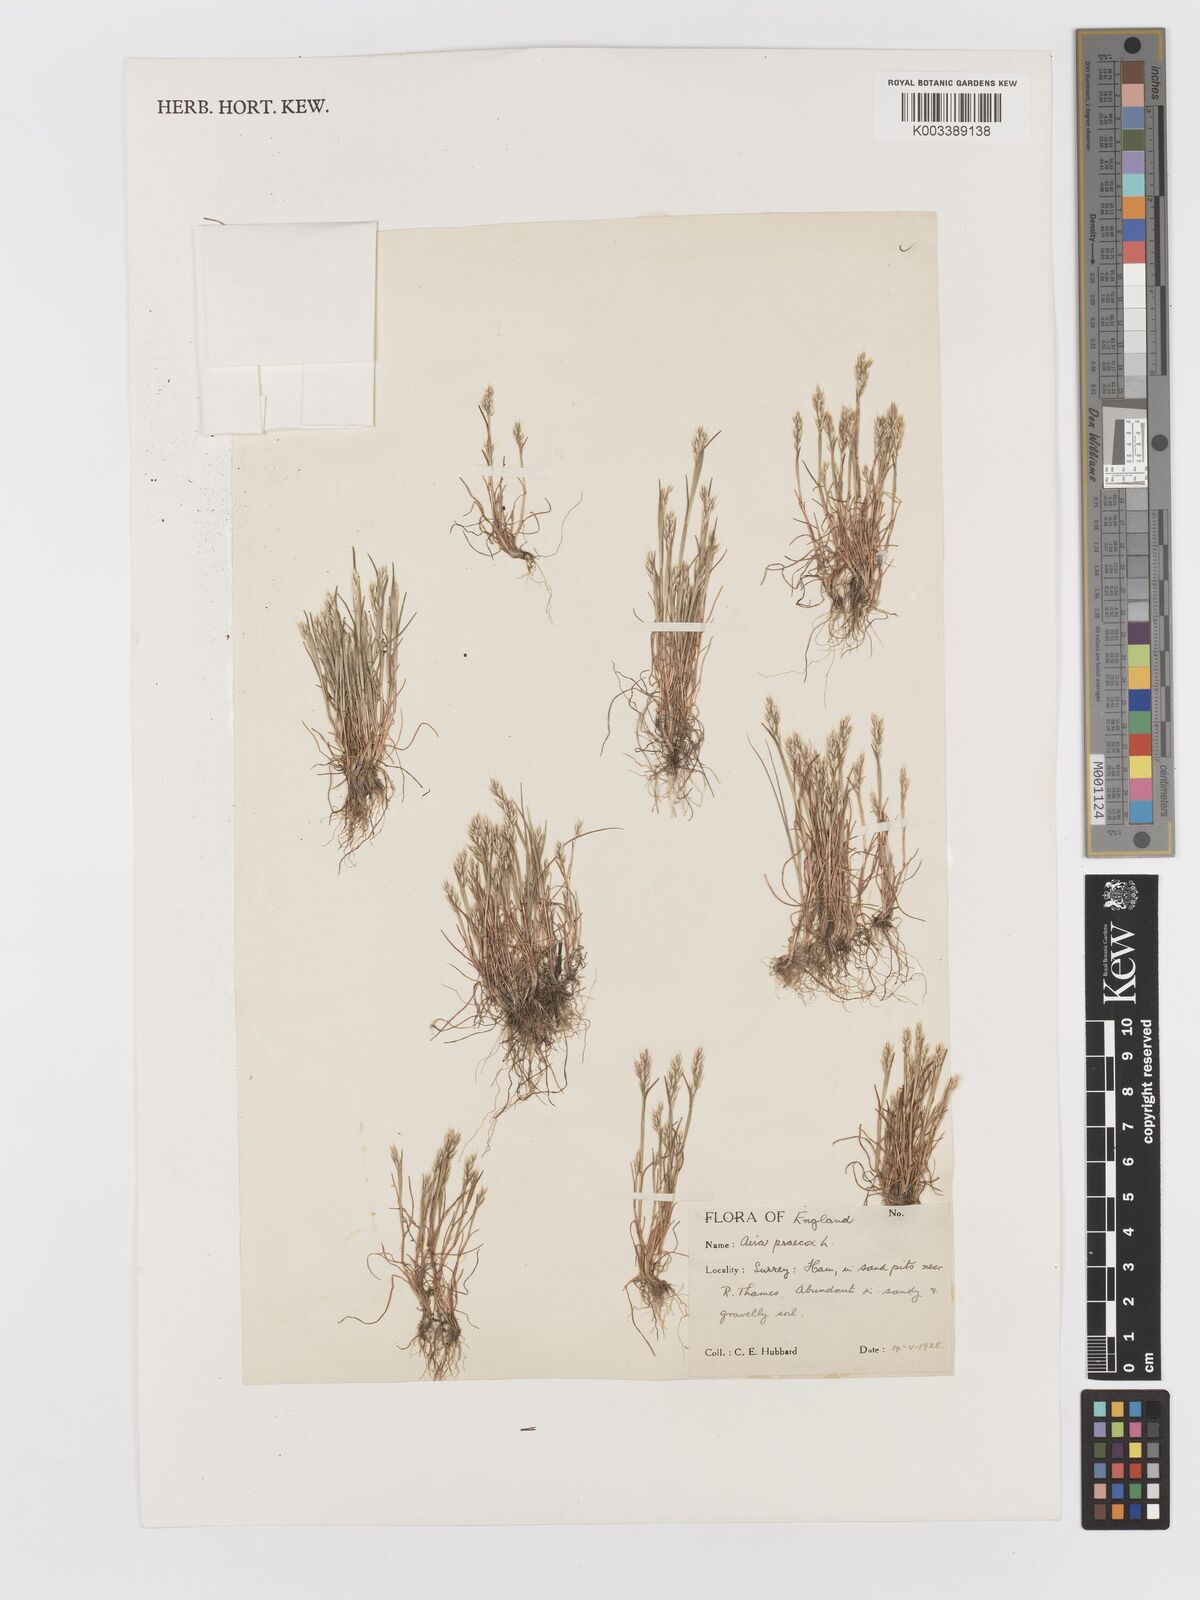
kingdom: Plantae
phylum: Tracheophyta
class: Liliopsida
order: Poales
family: Poaceae
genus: Aira
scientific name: Aira praecox
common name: Early hair-grass
